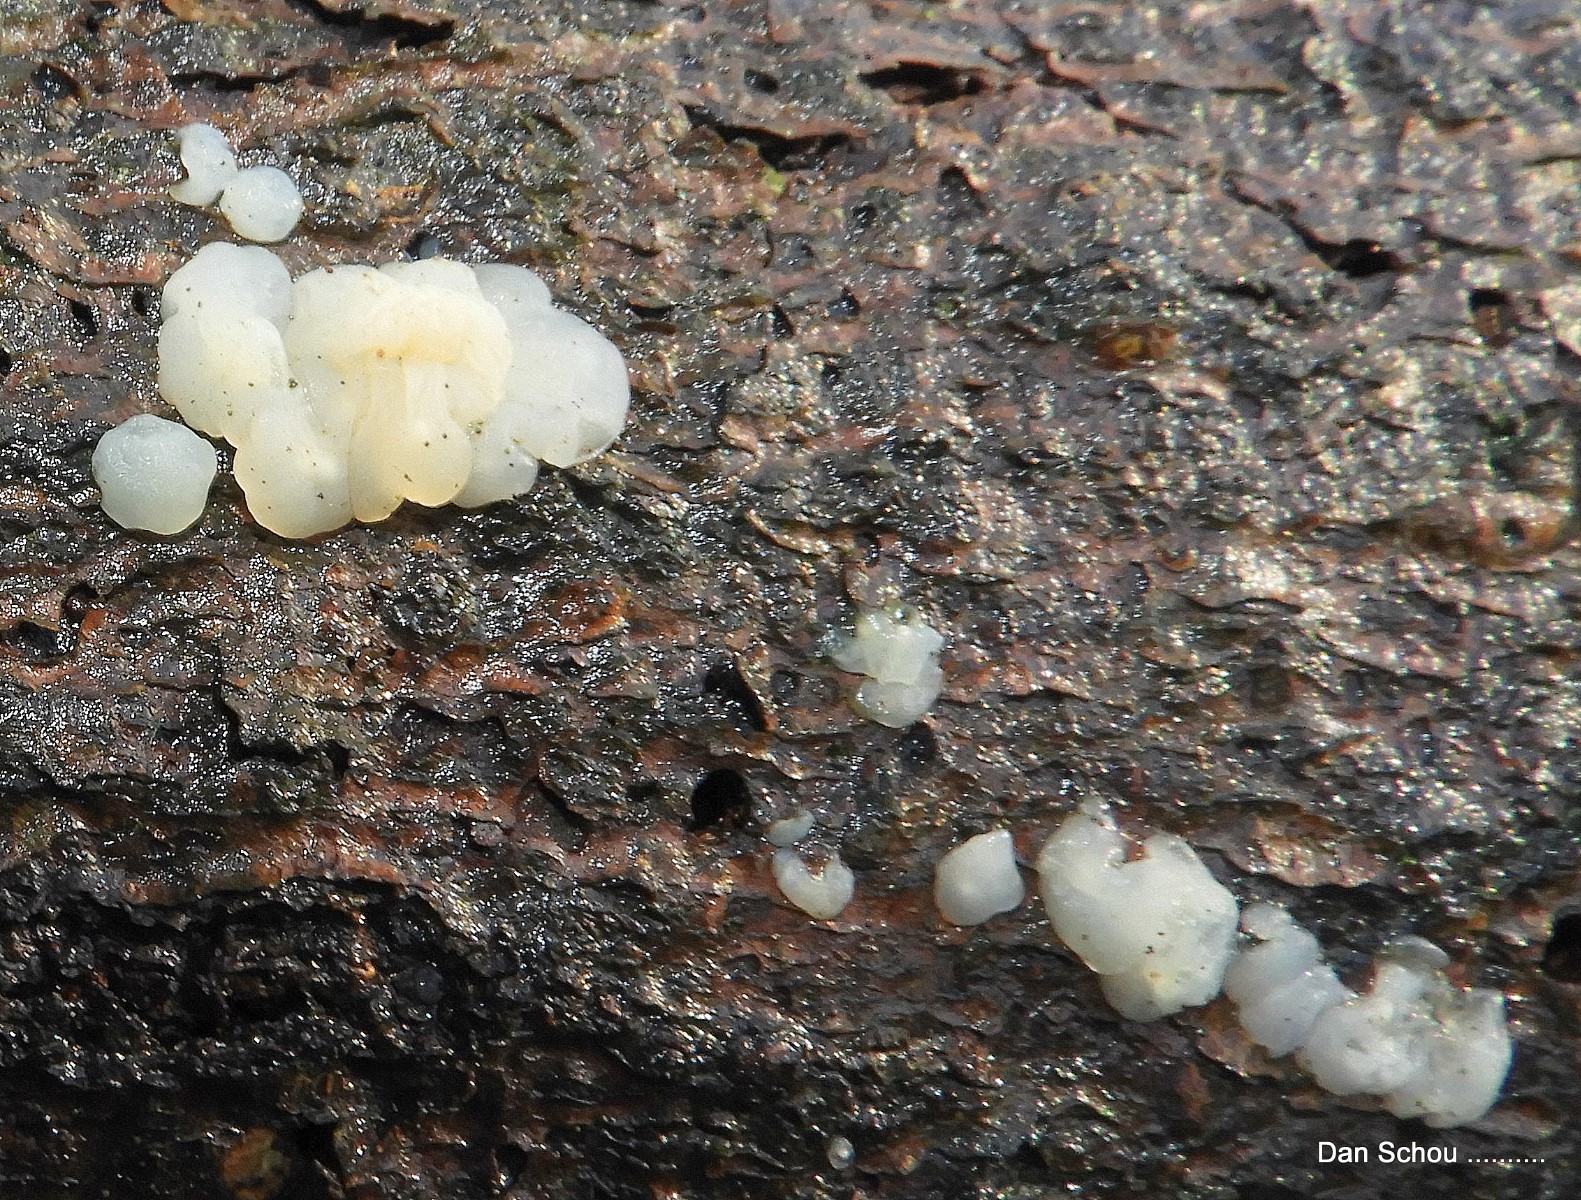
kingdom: Fungi
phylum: Basidiomycota
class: Agaricomycetes
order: Auriculariales
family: Auriculariaceae
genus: Exidia
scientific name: Exidia thuretiana
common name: hvidlig bævretop
